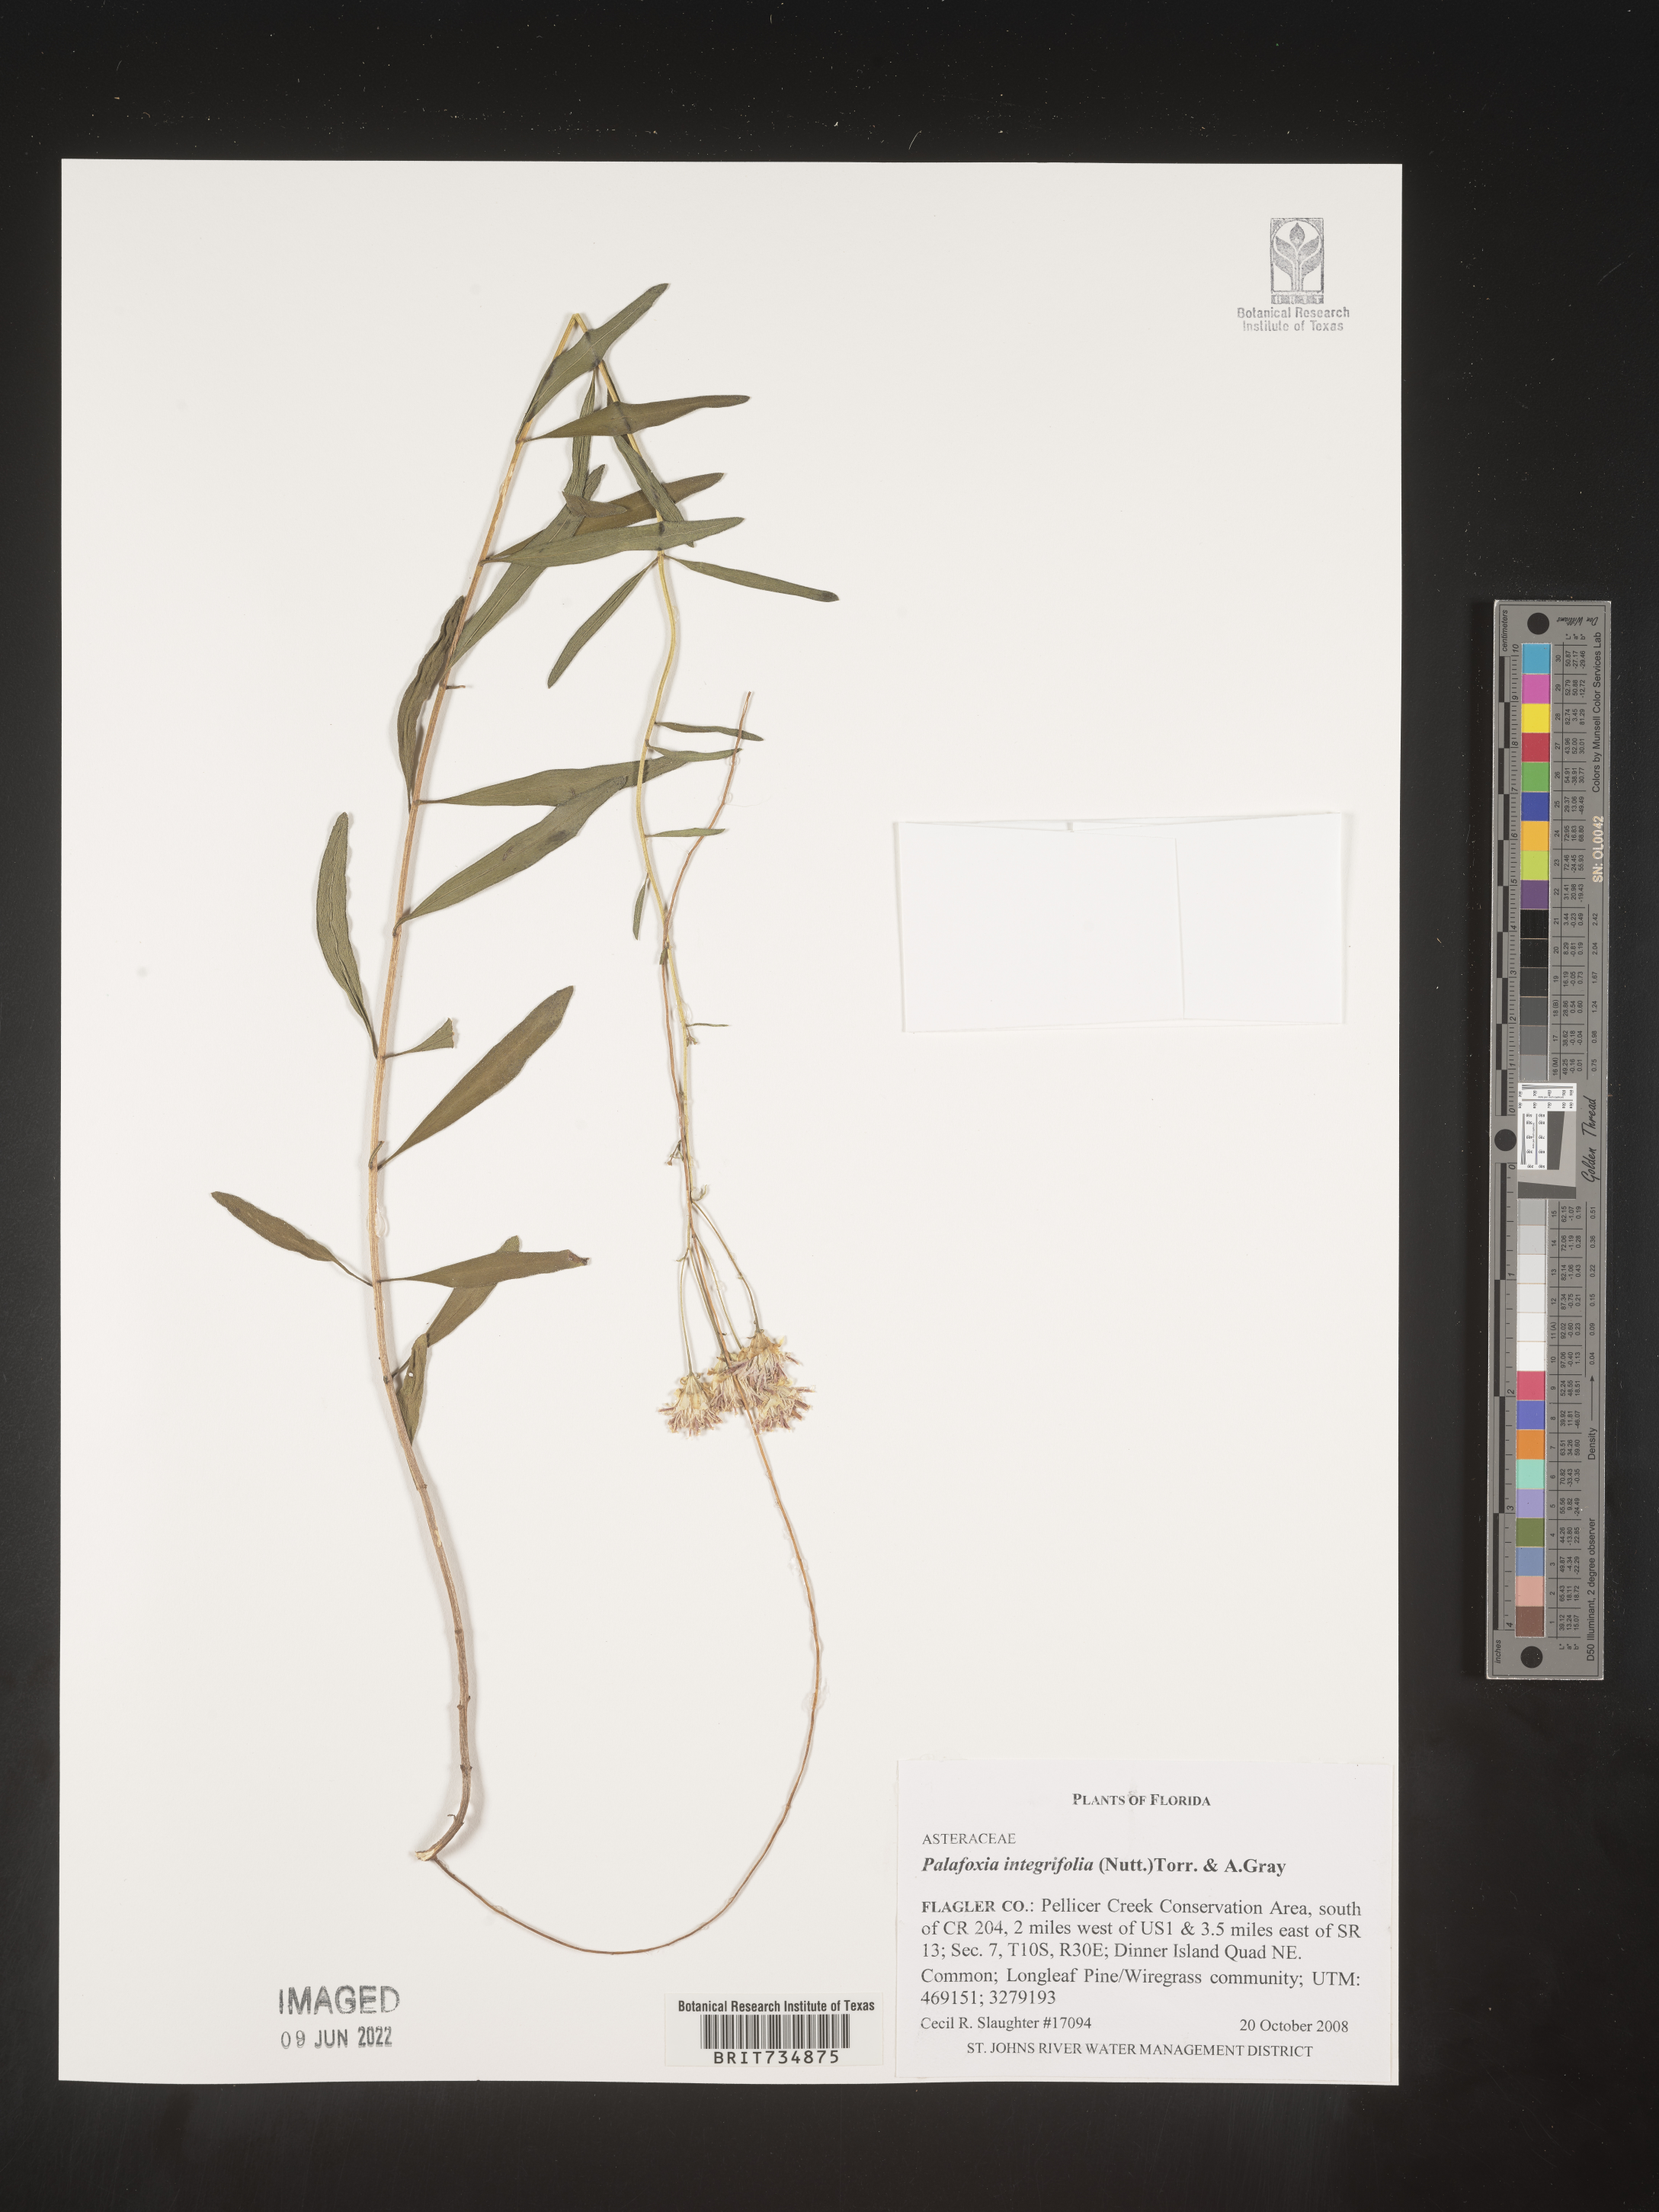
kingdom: Plantae
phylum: Tracheophyta
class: Magnoliopsida
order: Asterales
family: Asteraceae
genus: Palafoxia
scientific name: Palafoxia integrifolia
